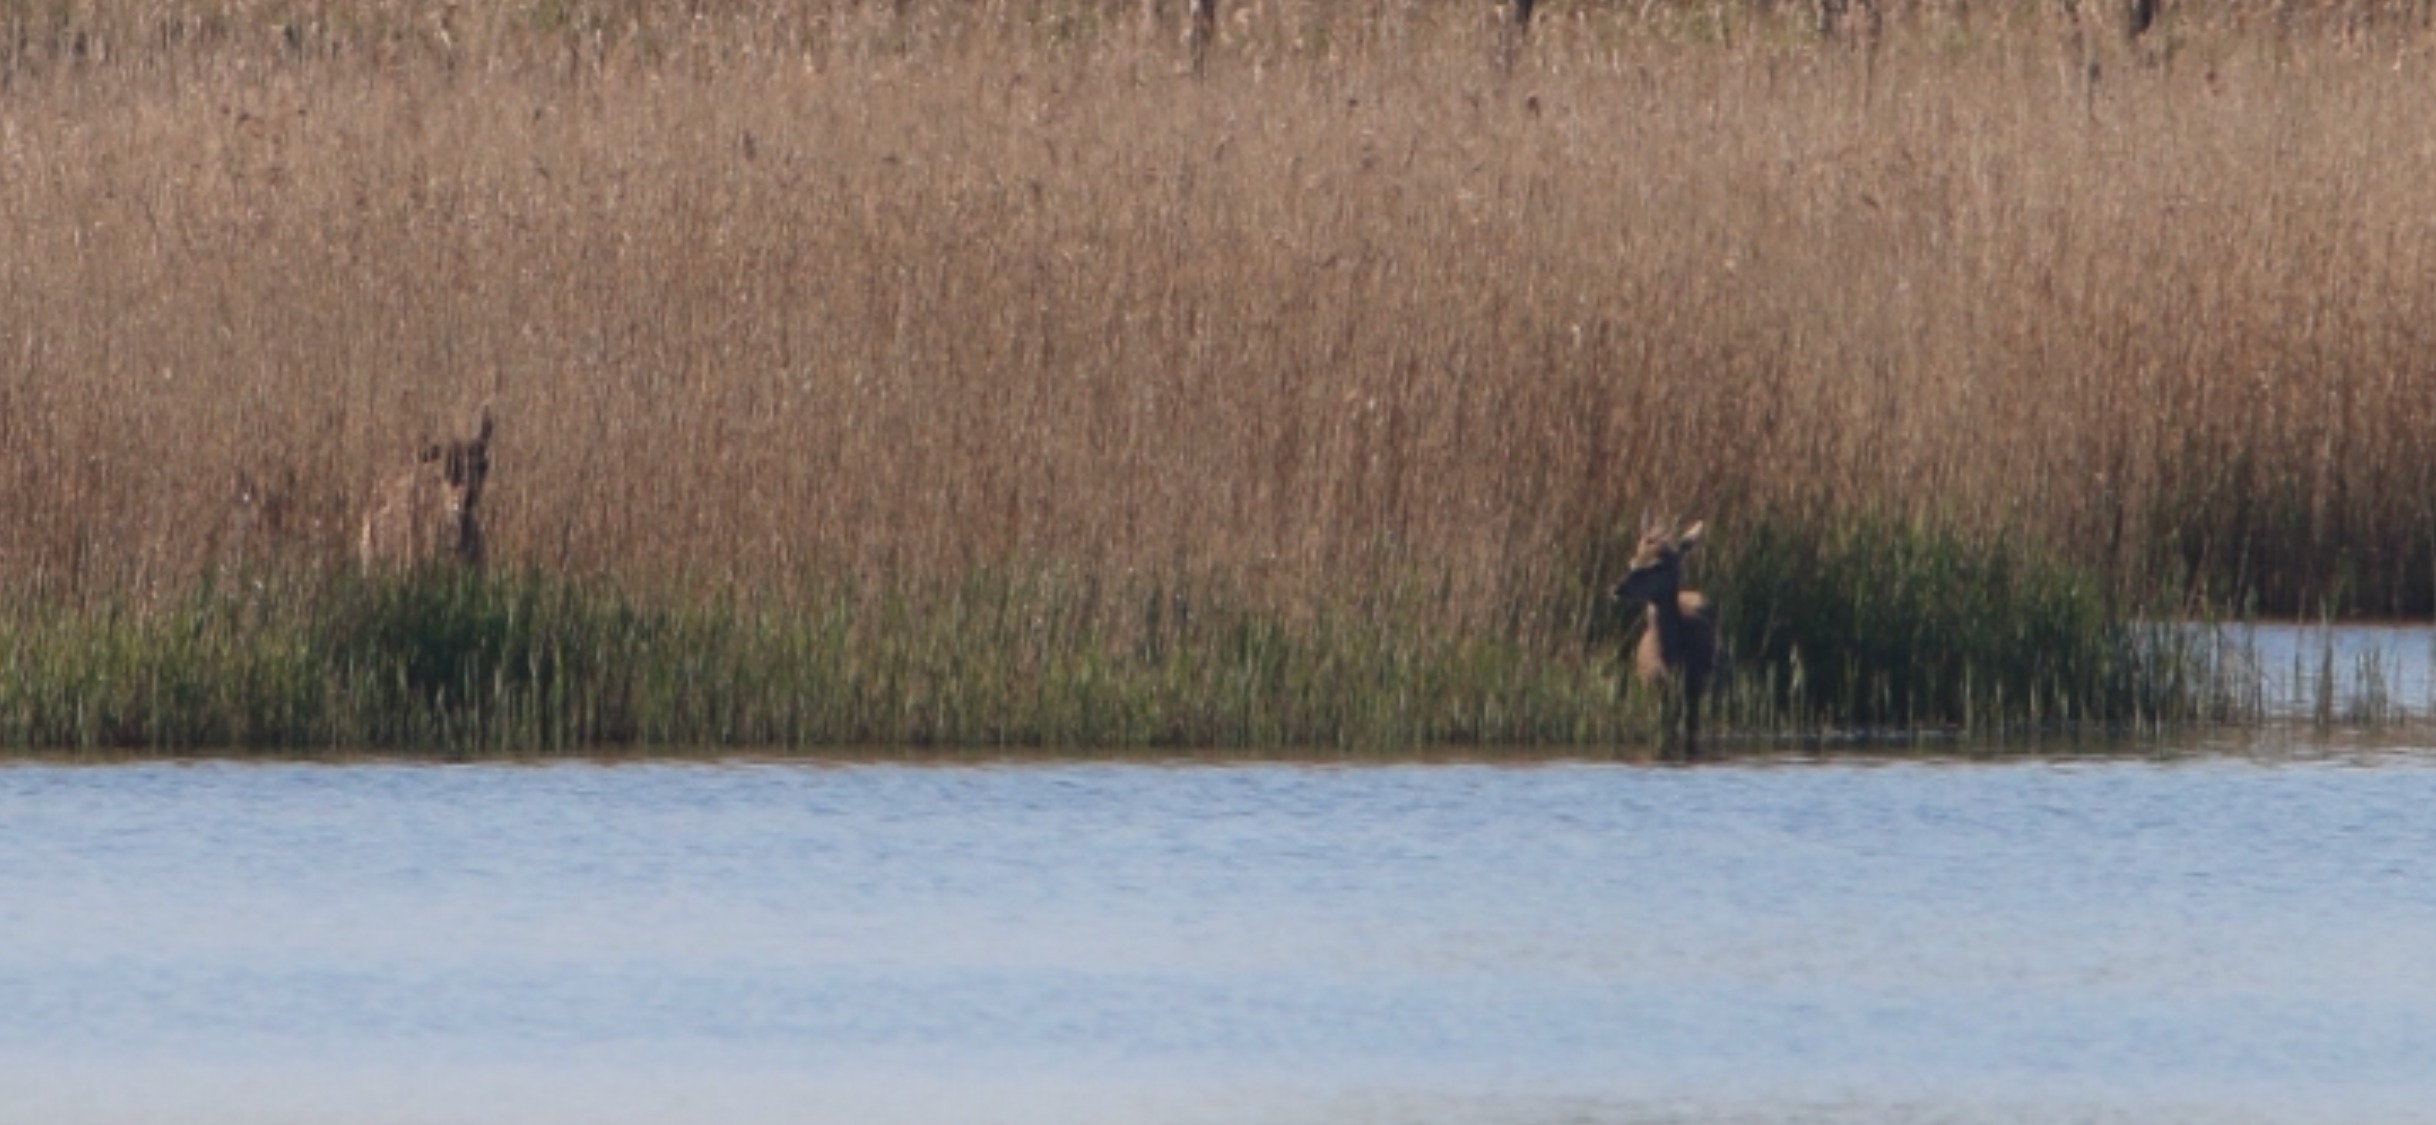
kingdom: Animalia
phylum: Chordata
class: Mammalia
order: Artiodactyla
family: Cervidae
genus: Cervus
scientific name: Cervus elaphus
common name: Krondyr
